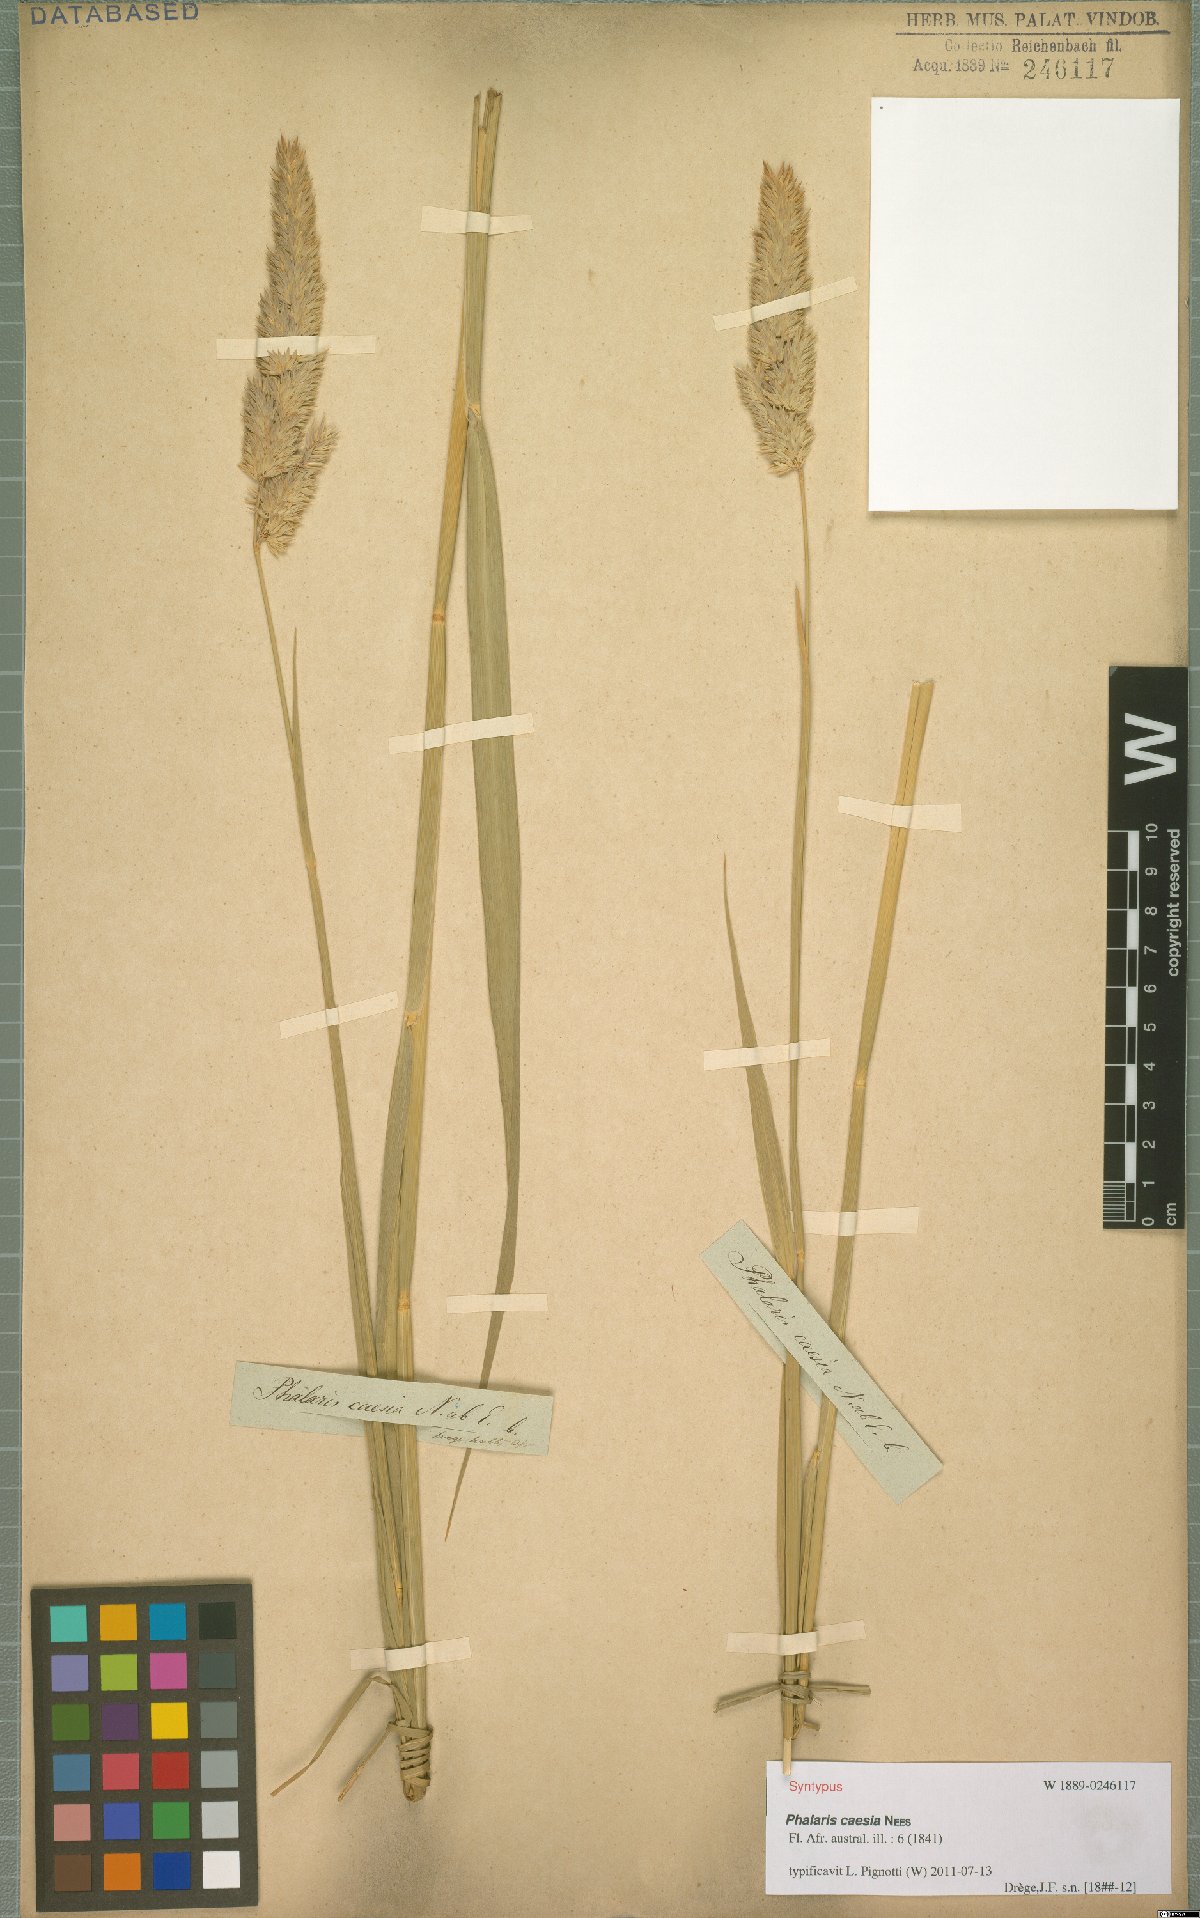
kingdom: Plantae
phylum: Tracheophyta
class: Liliopsida
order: Poales
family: Poaceae
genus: Phalaris
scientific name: Phalaris arundinacea
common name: Reed canary-grass
